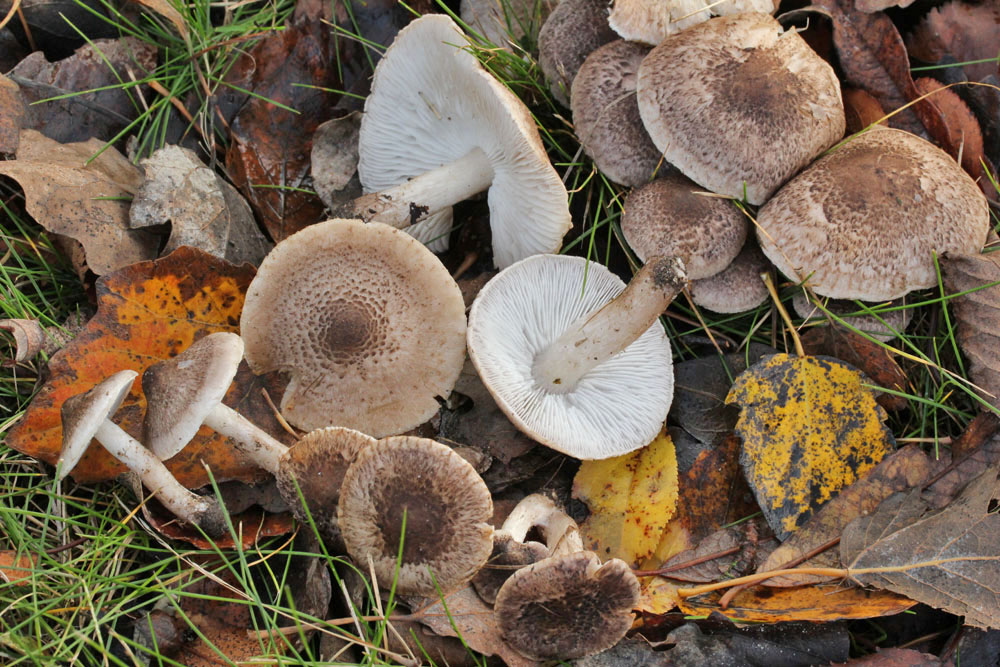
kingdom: Fungi
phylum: Basidiomycota
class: Agaricomycetes
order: Agaricales
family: Tricholomataceae
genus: Tricholoma
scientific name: Tricholoma argyraceum
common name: slør-ridderhat
